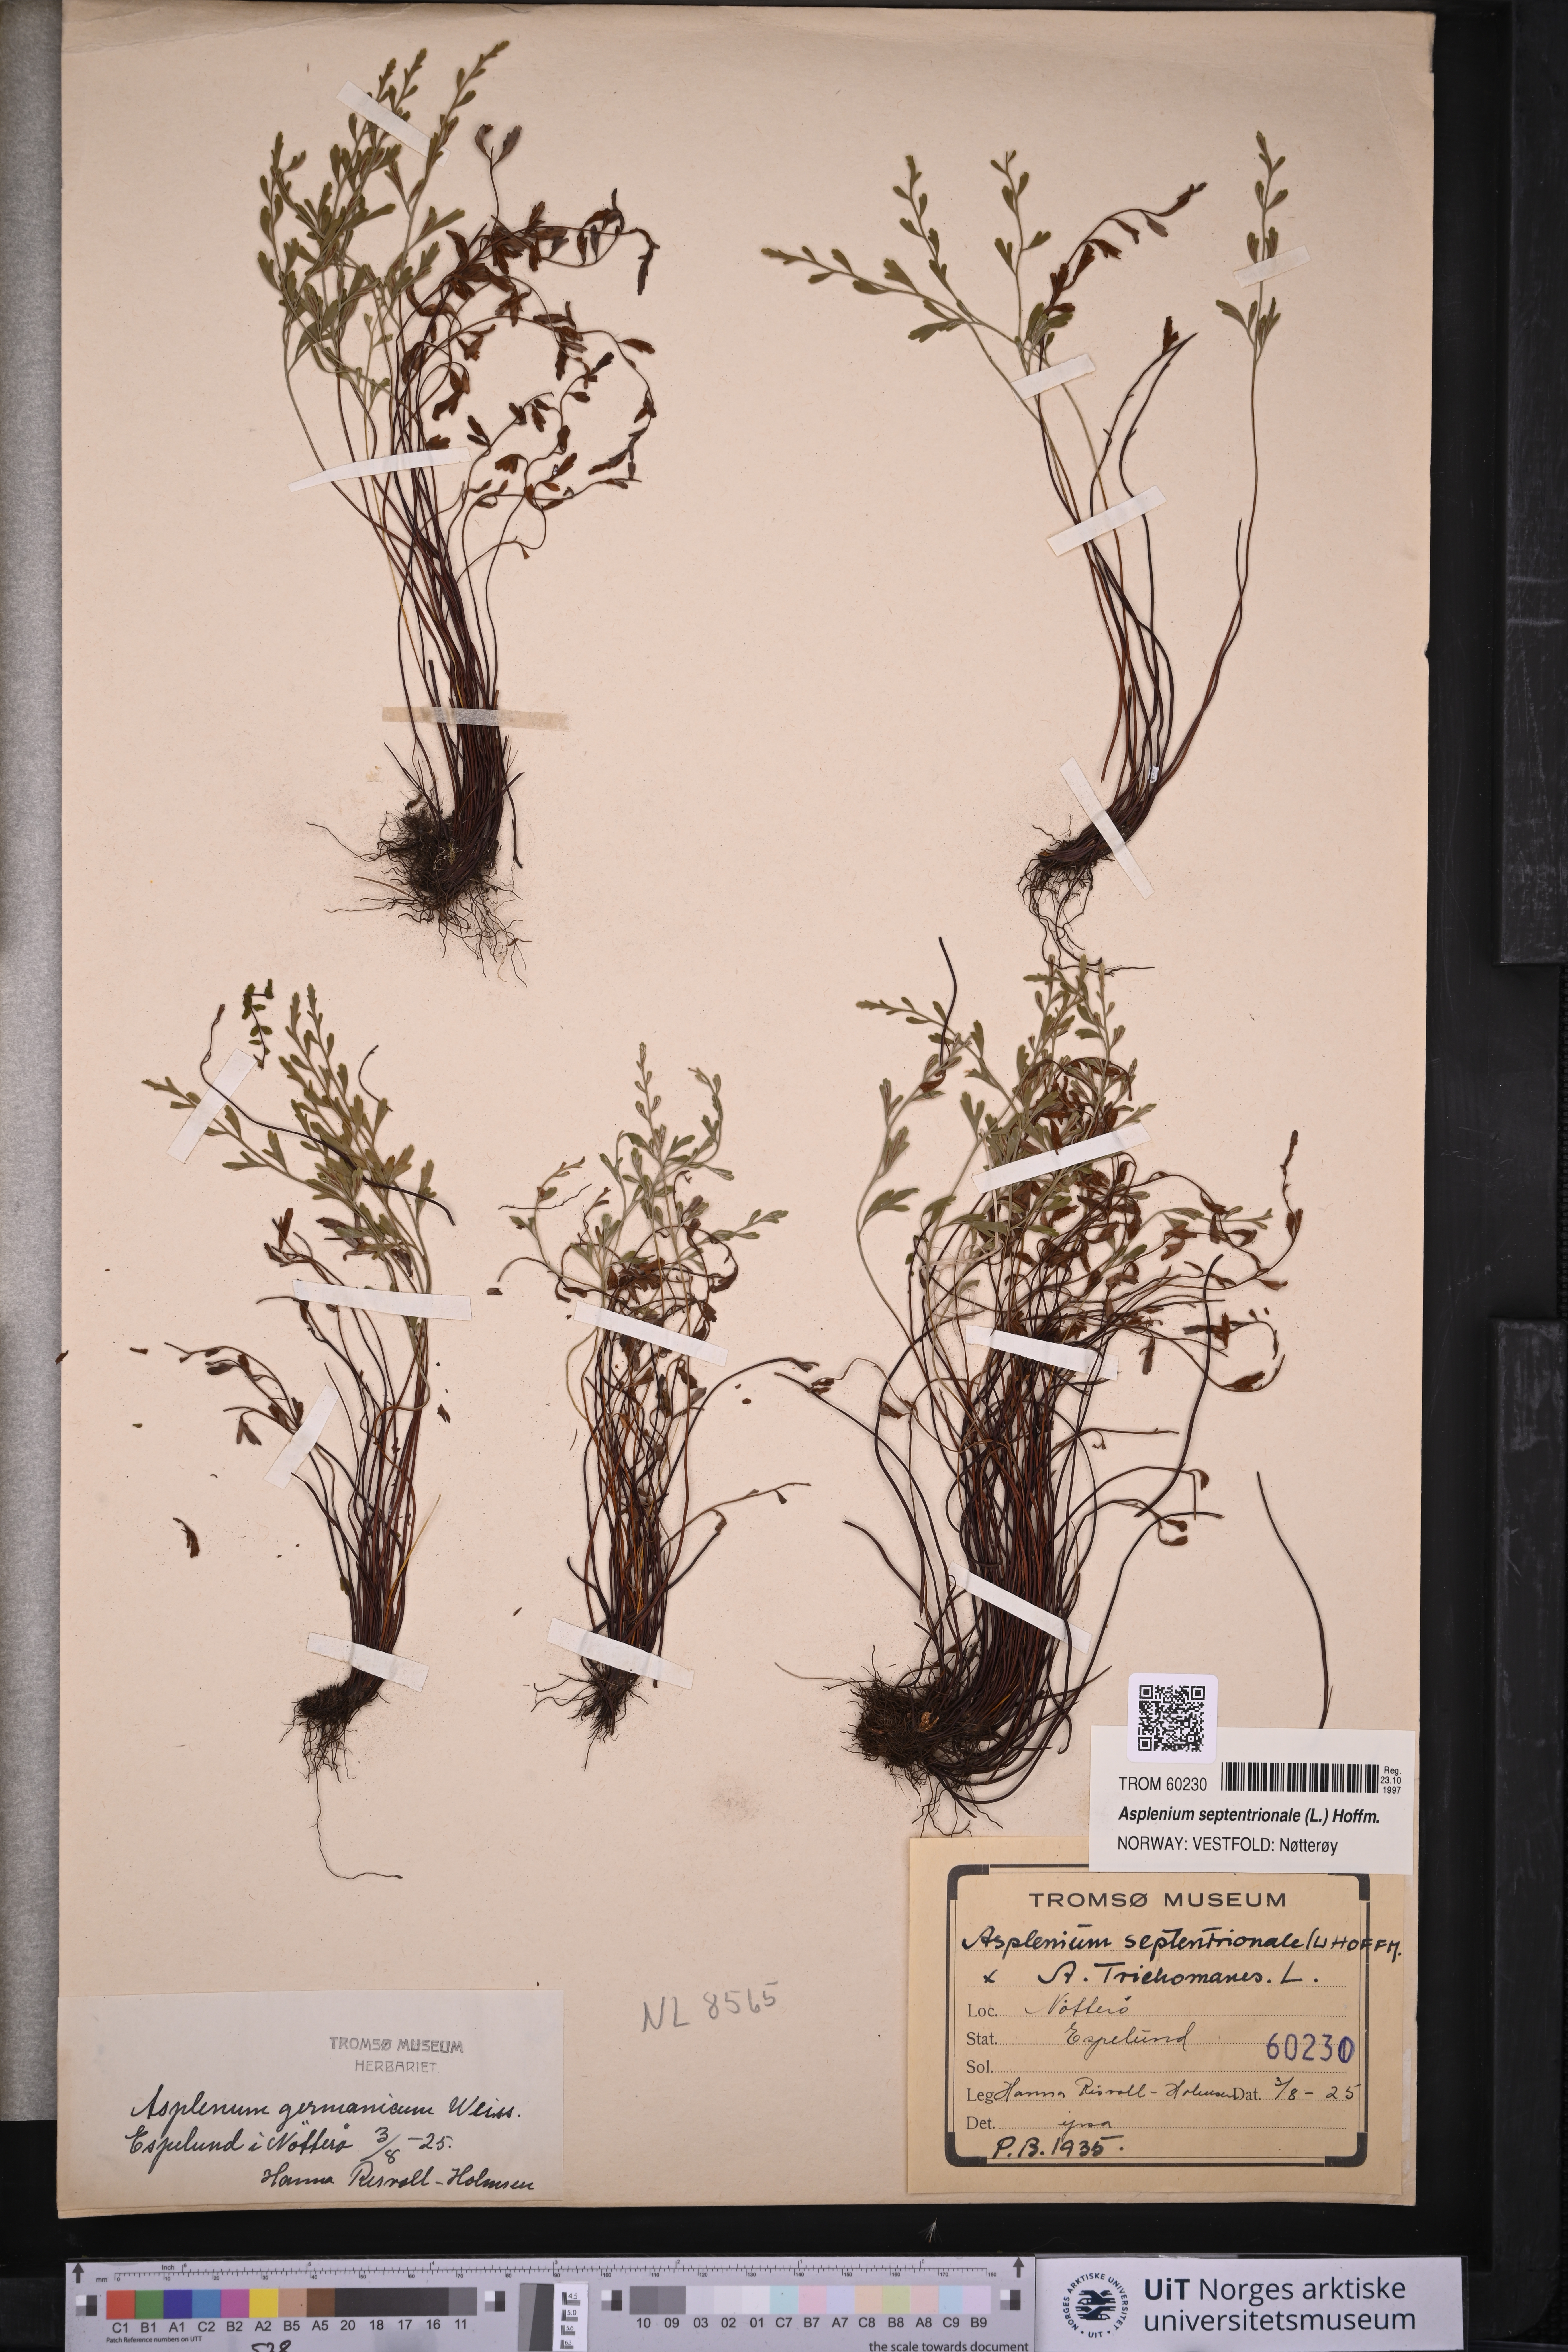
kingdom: Plantae
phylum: Tracheophyta
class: Polypodiopsida
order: Polypodiales
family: Aspleniaceae
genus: Asplenium
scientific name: Asplenium septentrionale
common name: Forked spleenwort
